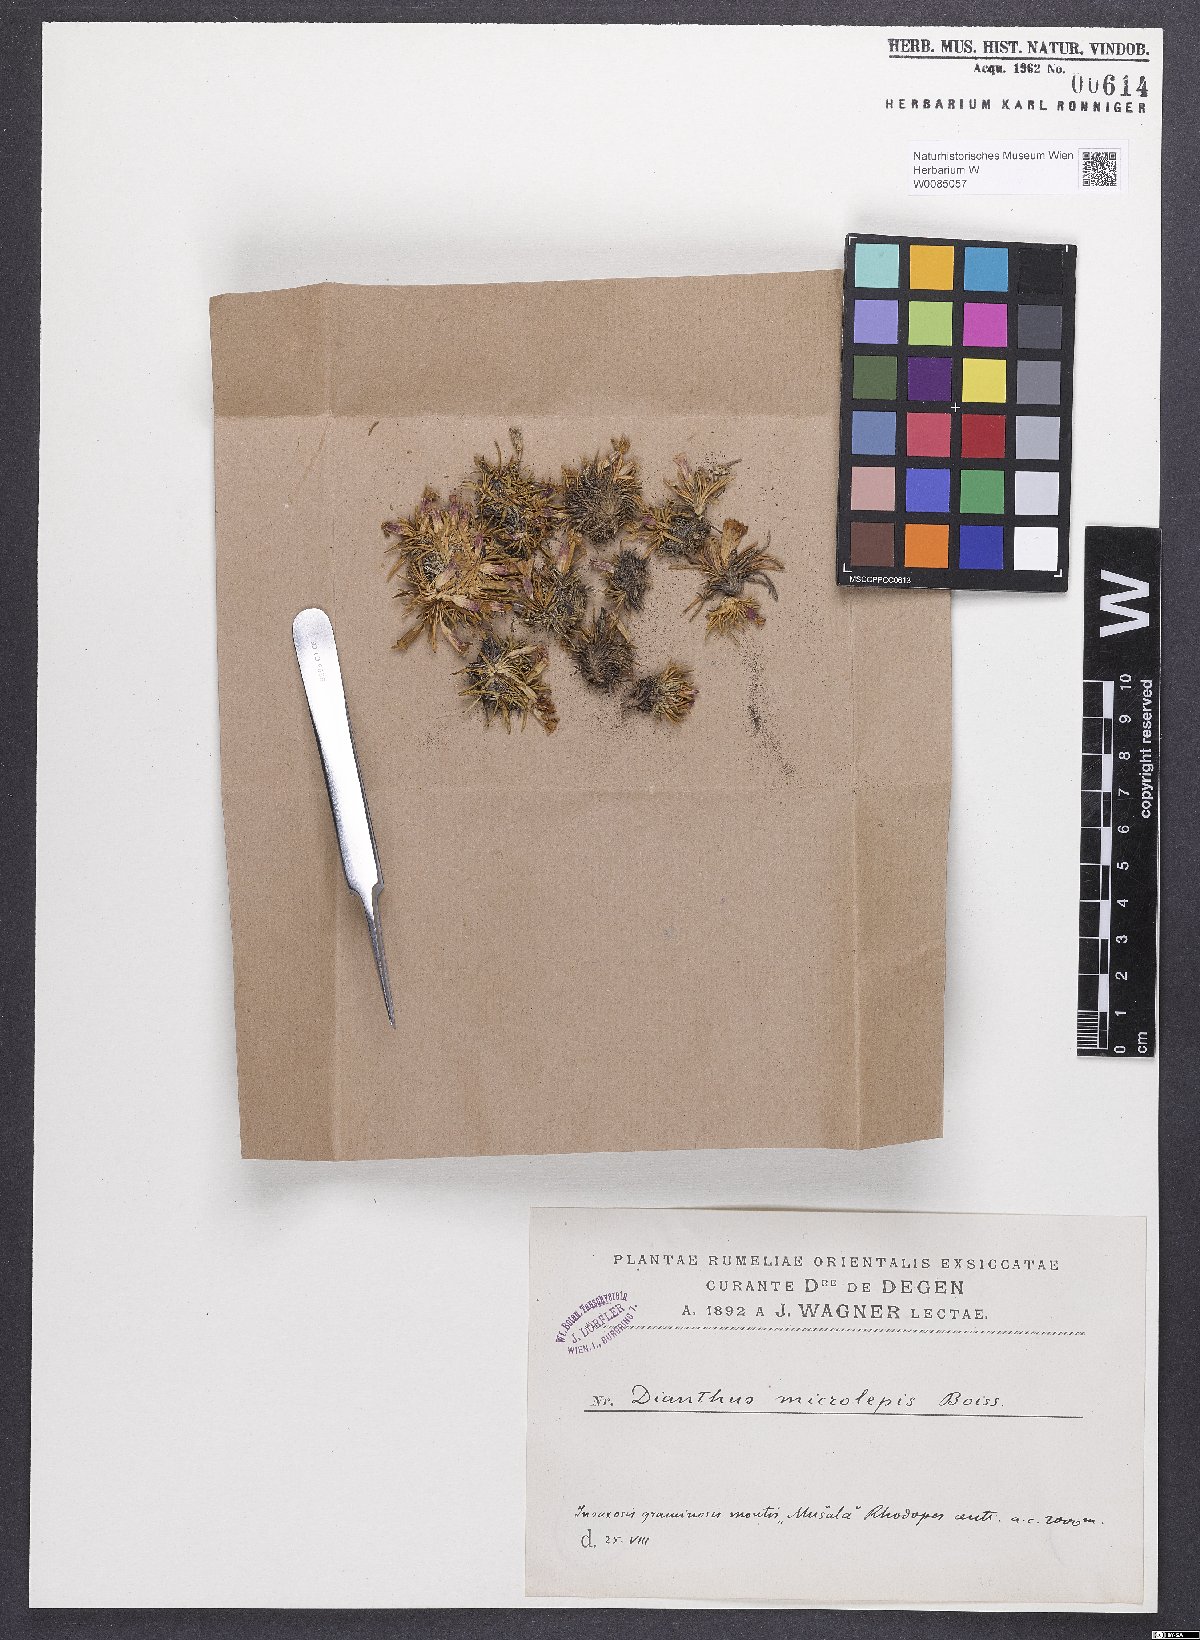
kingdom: Plantae
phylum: Tracheophyta
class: Magnoliopsida
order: Caryophyllales
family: Caryophyllaceae
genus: Dianthus
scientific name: Dianthus microlepis
